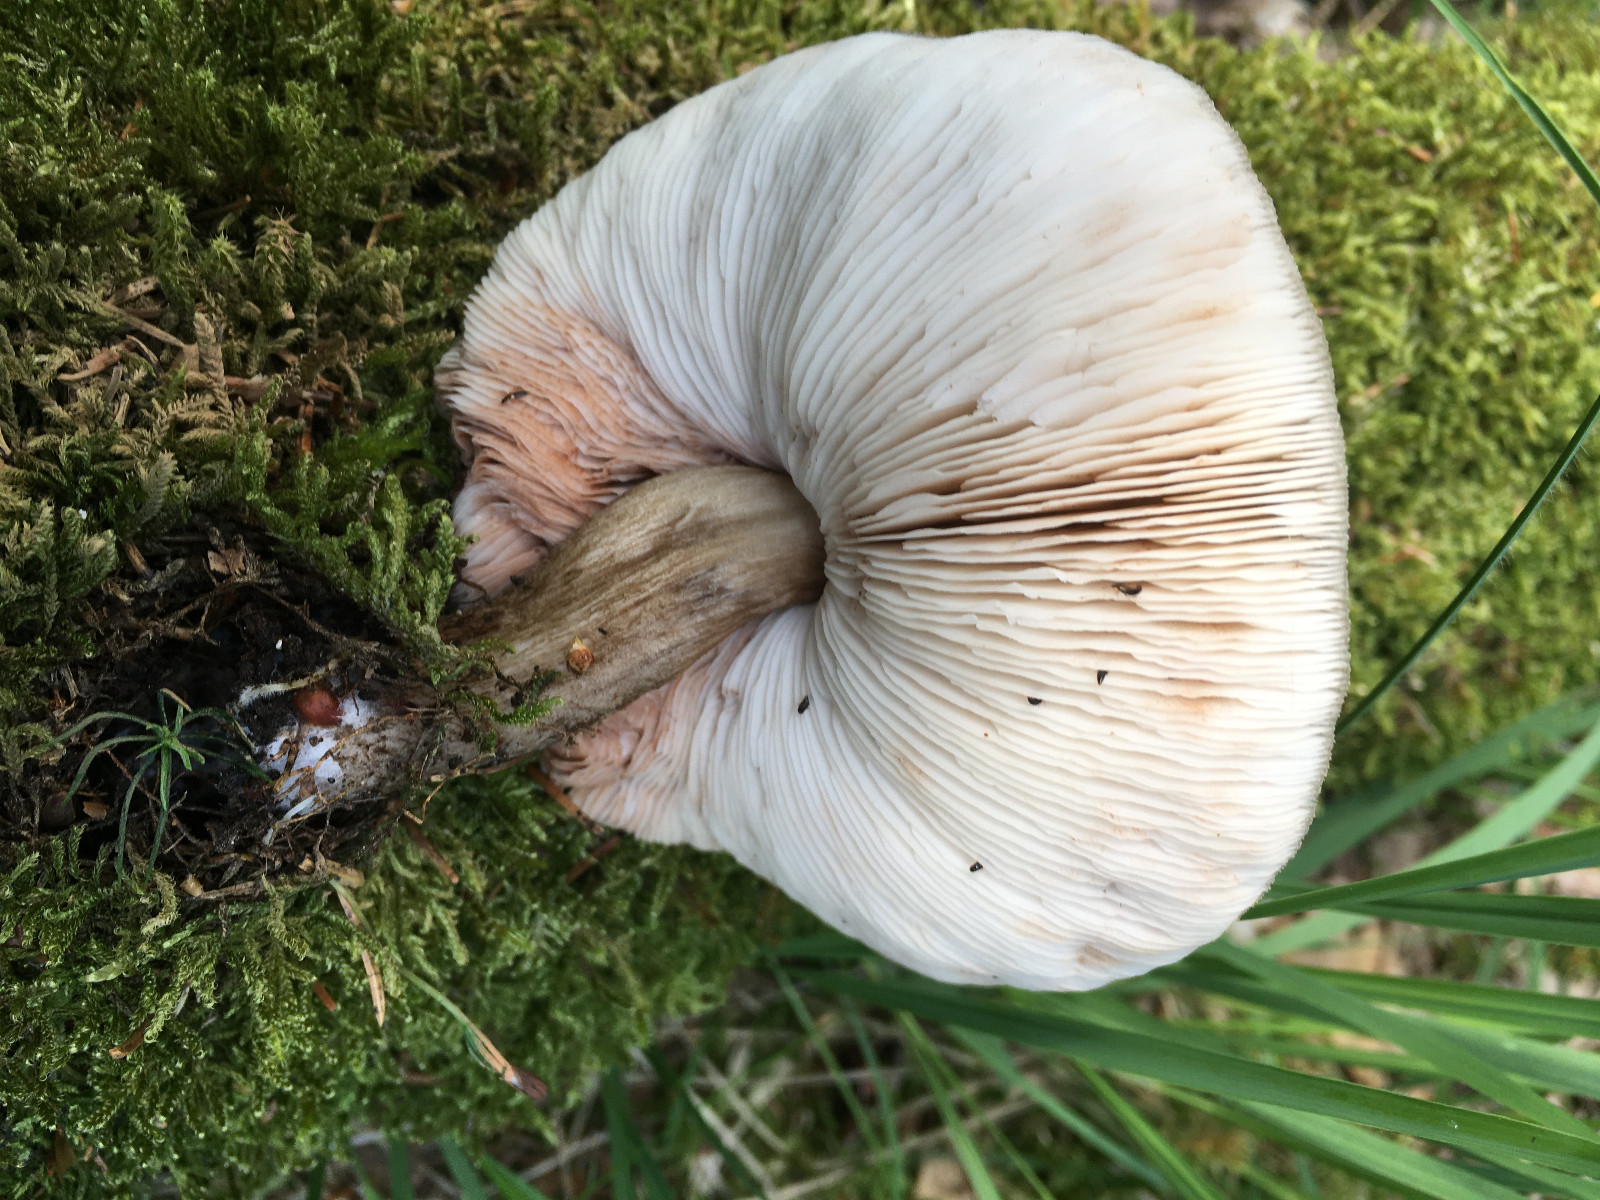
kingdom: Fungi
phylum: Basidiomycota
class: Agaricomycetes
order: Agaricales
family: Pluteaceae
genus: Pluteus
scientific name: Pluteus cervinus
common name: sodfarvet skærmhat
